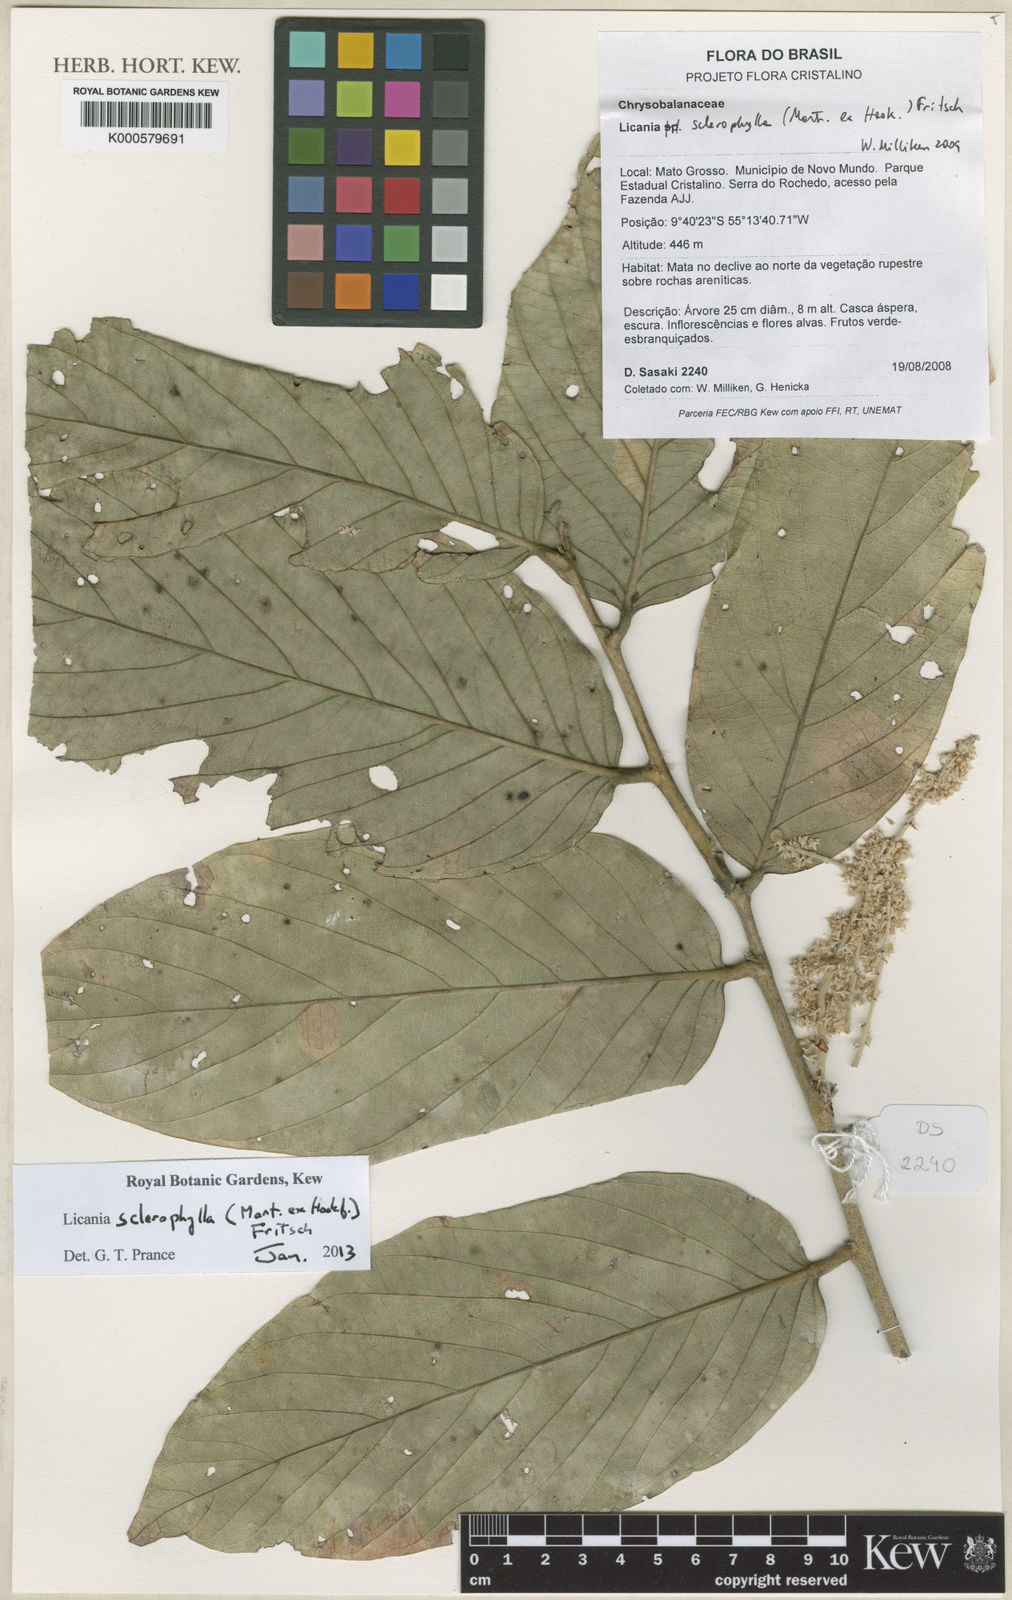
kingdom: Plantae
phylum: Tracheophyta
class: Magnoliopsida
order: Malpighiales
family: Chrysobalanaceae
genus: Leptobalanus
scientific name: Leptobalanus sclerophyllus
